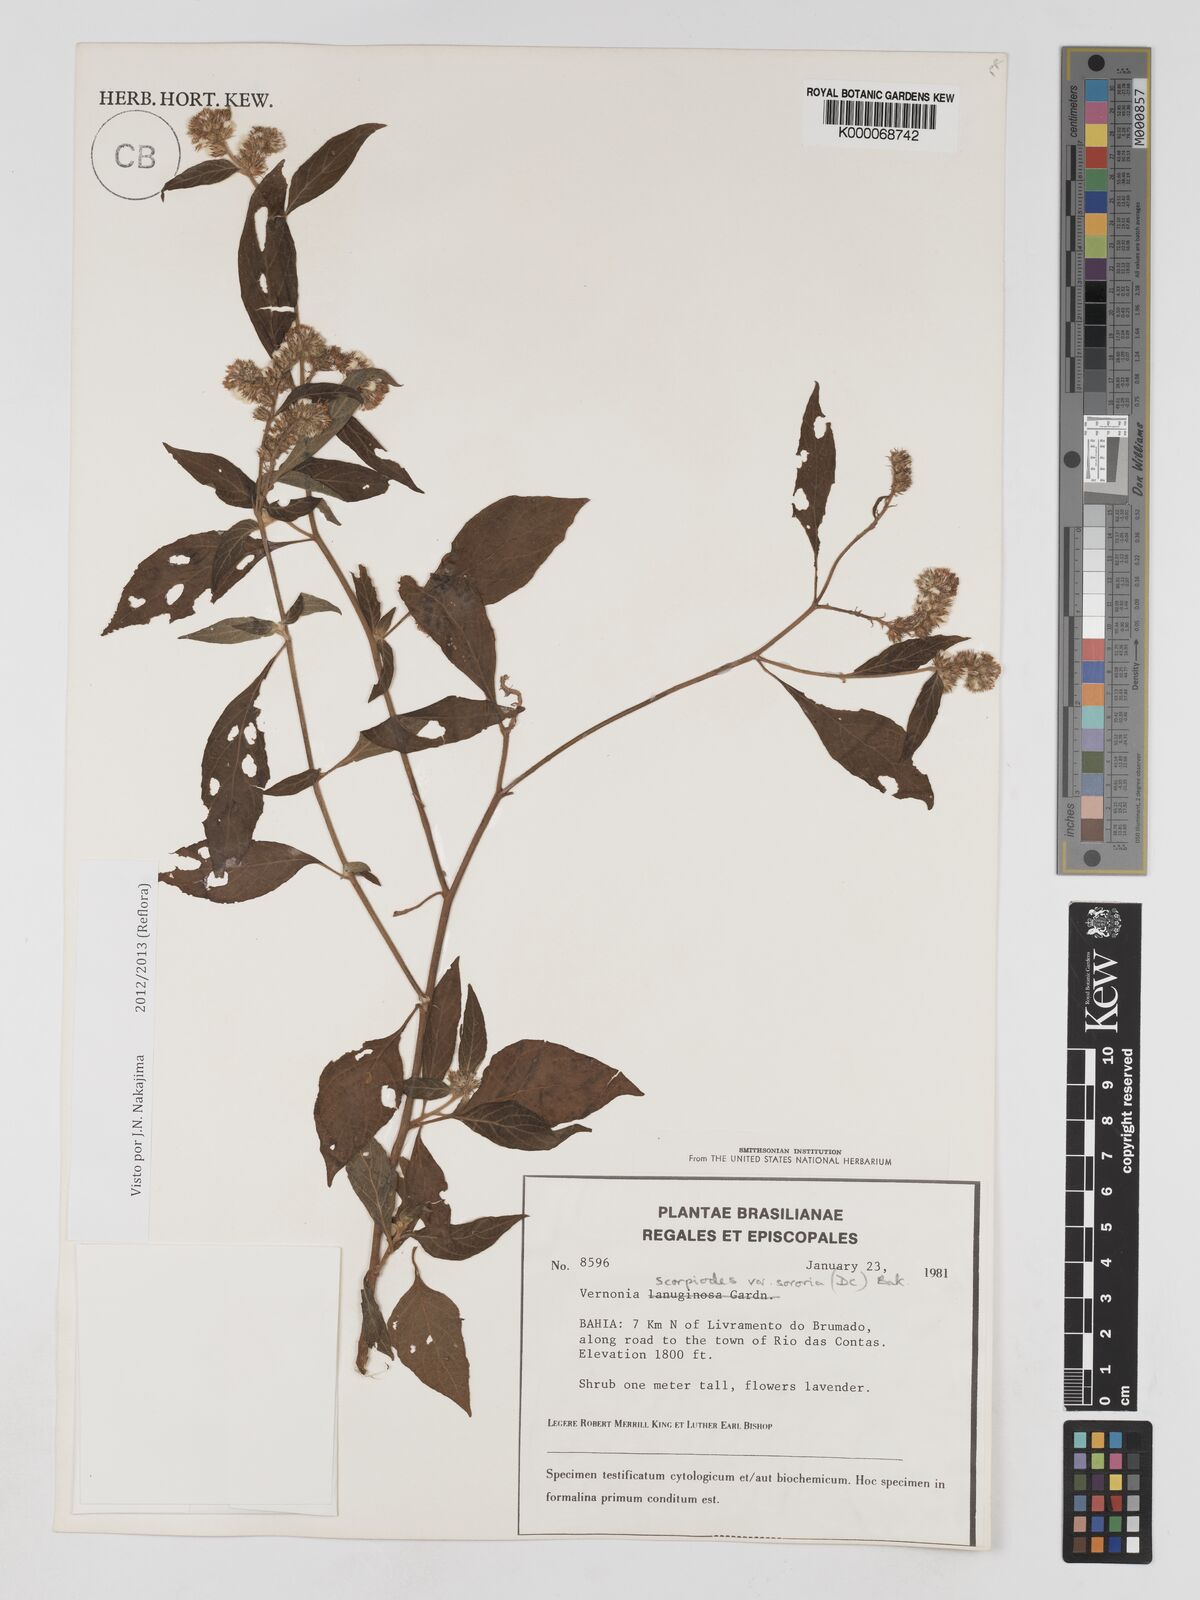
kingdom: Plantae
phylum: Tracheophyta
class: Magnoliopsida
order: Asterales
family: Asteraceae
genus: Cyrtocymura
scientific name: Cyrtocymura scorpioides
